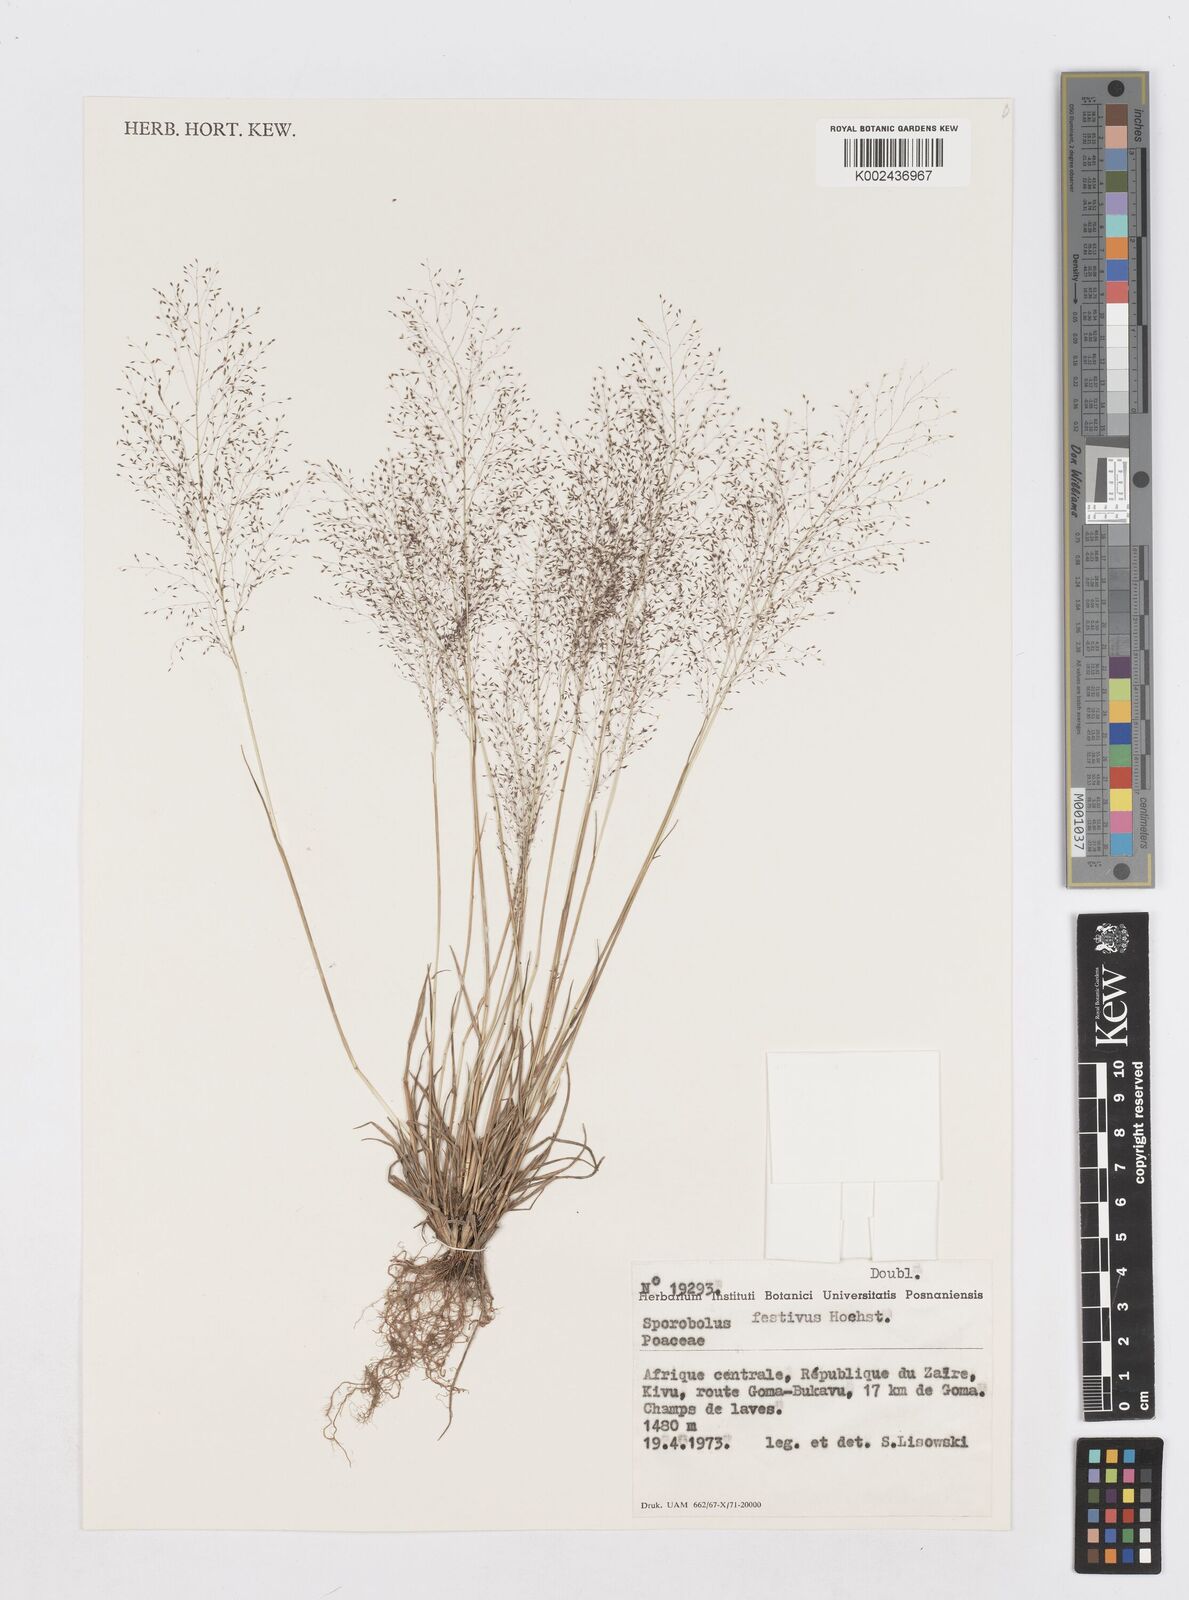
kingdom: Plantae
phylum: Tracheophyta
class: Liliopsida
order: Poales
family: Poaceae
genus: Sporobolus
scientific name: Sporobolus festivus
